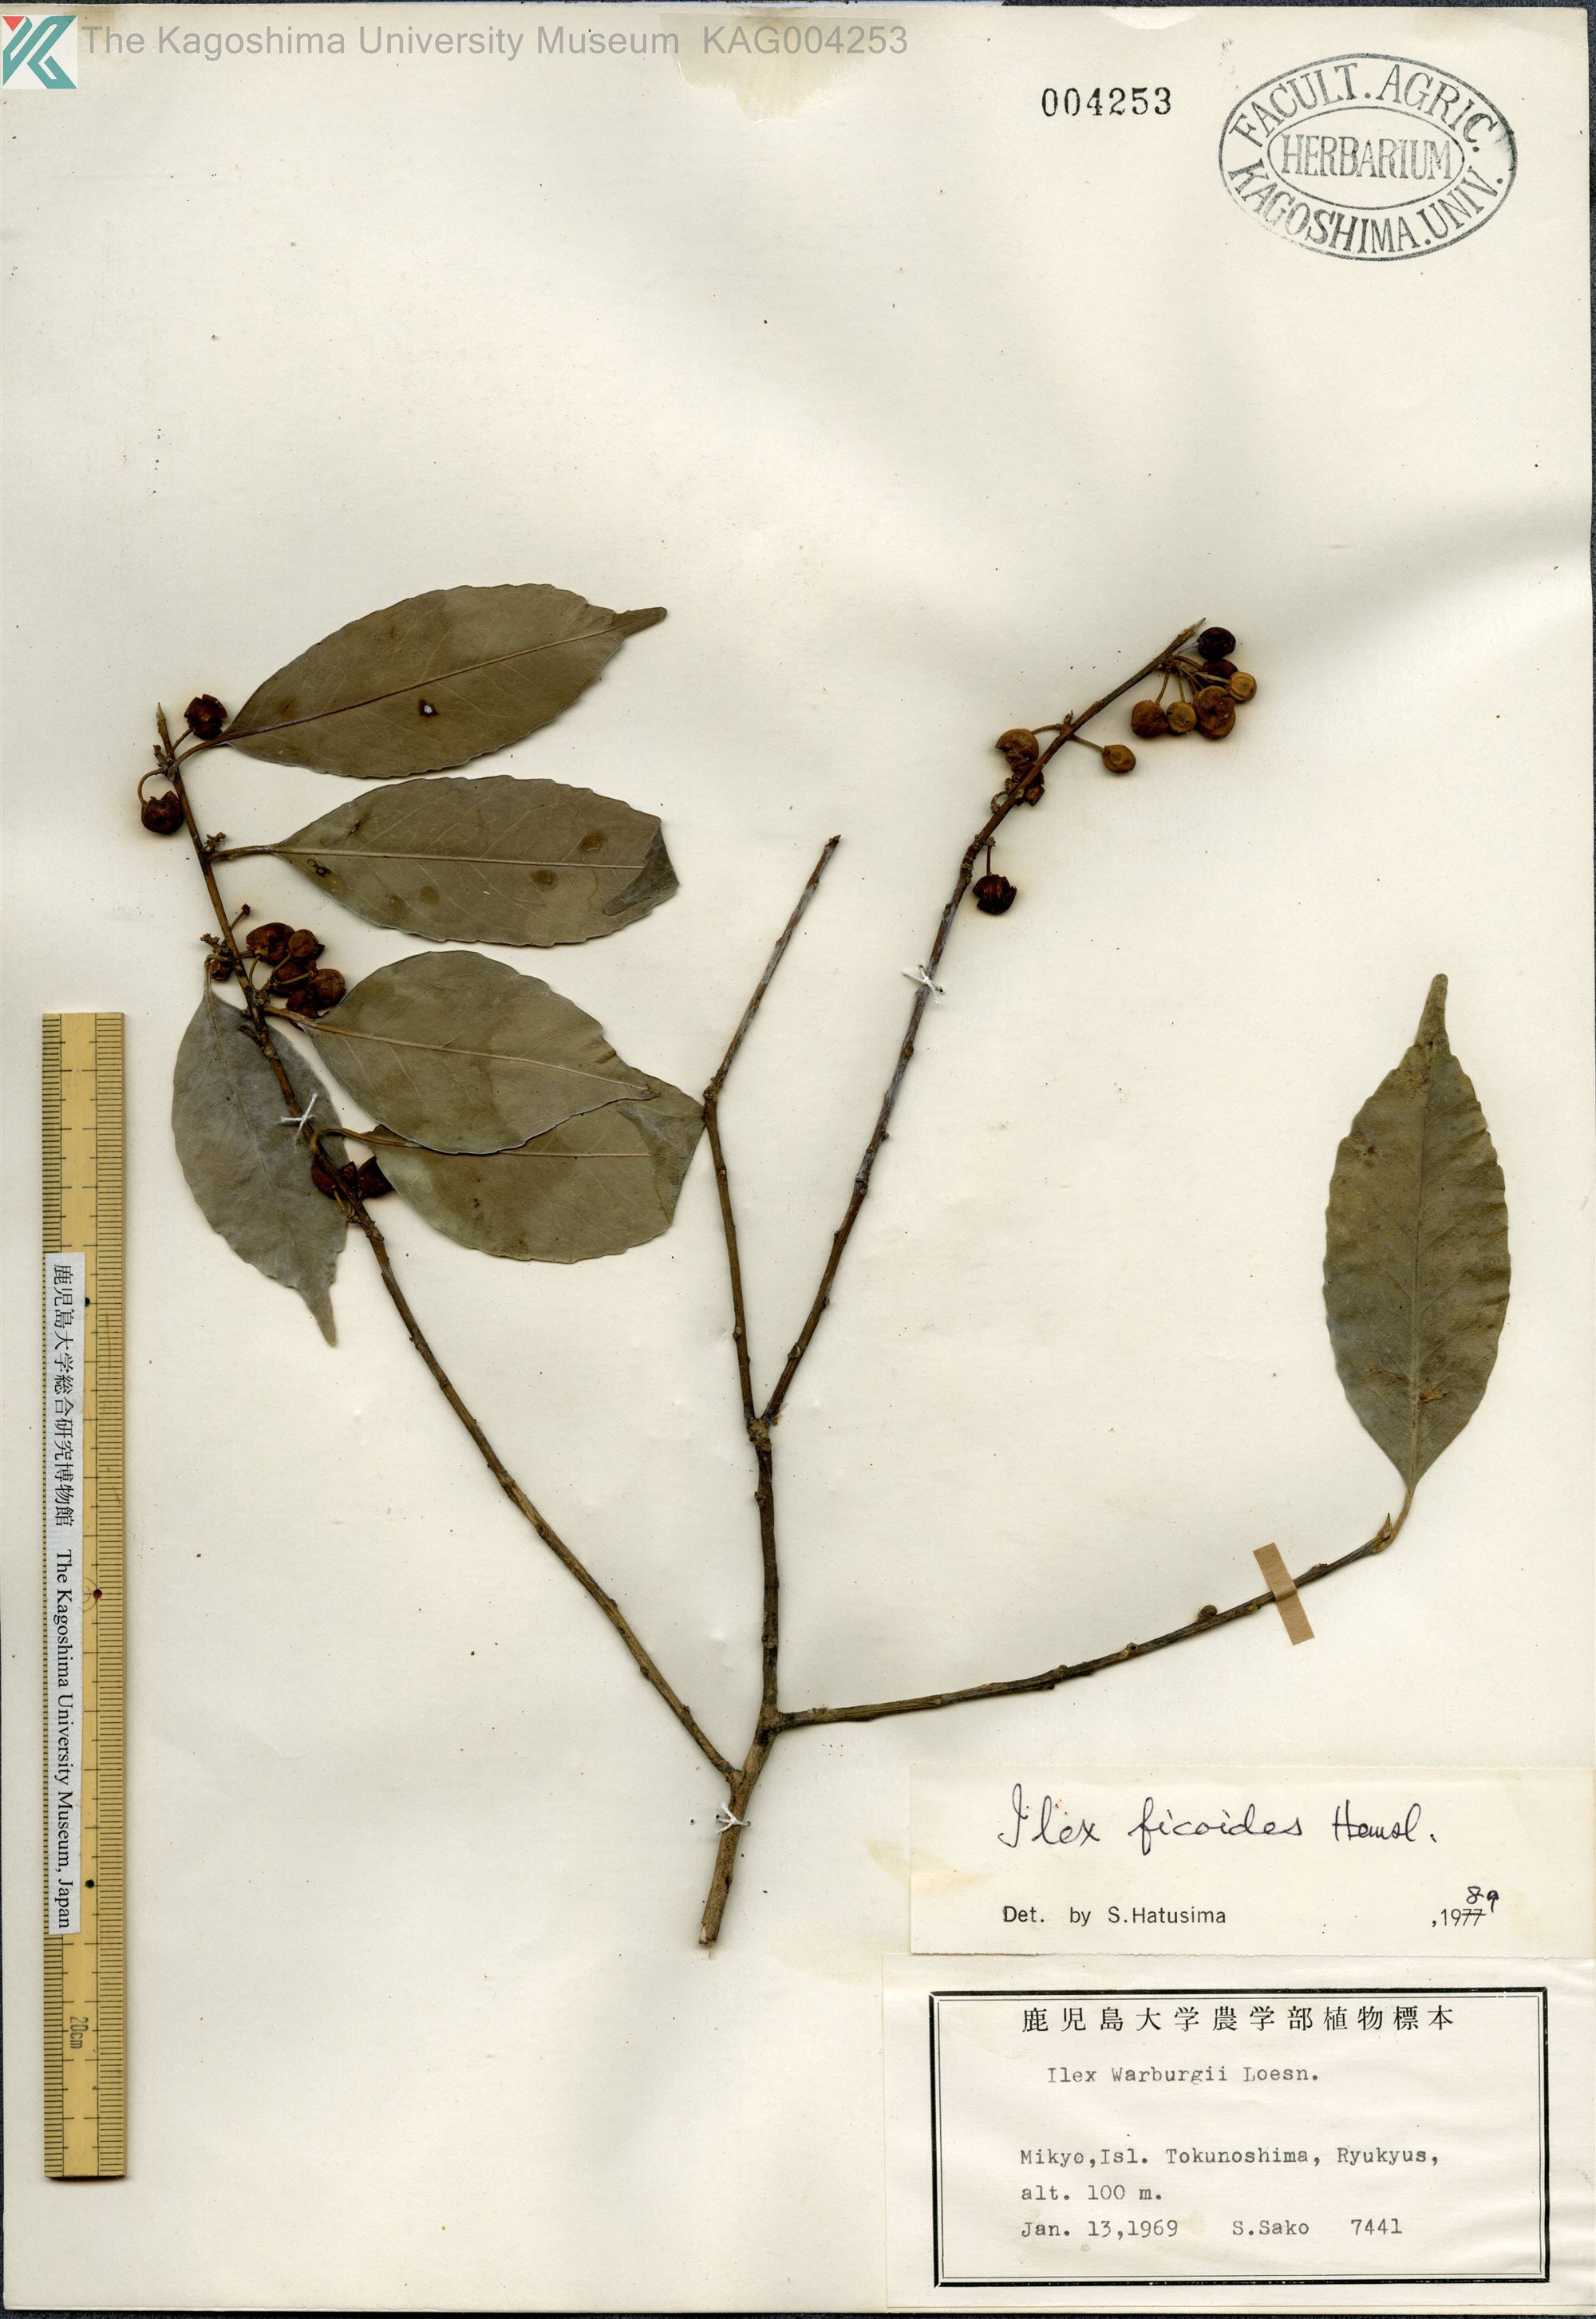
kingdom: Plantae
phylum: Tracheophyta
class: Magnoliopsida
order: Aquifoliales
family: Aquifoliaceae
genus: Ilex
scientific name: Ilex warburgii
